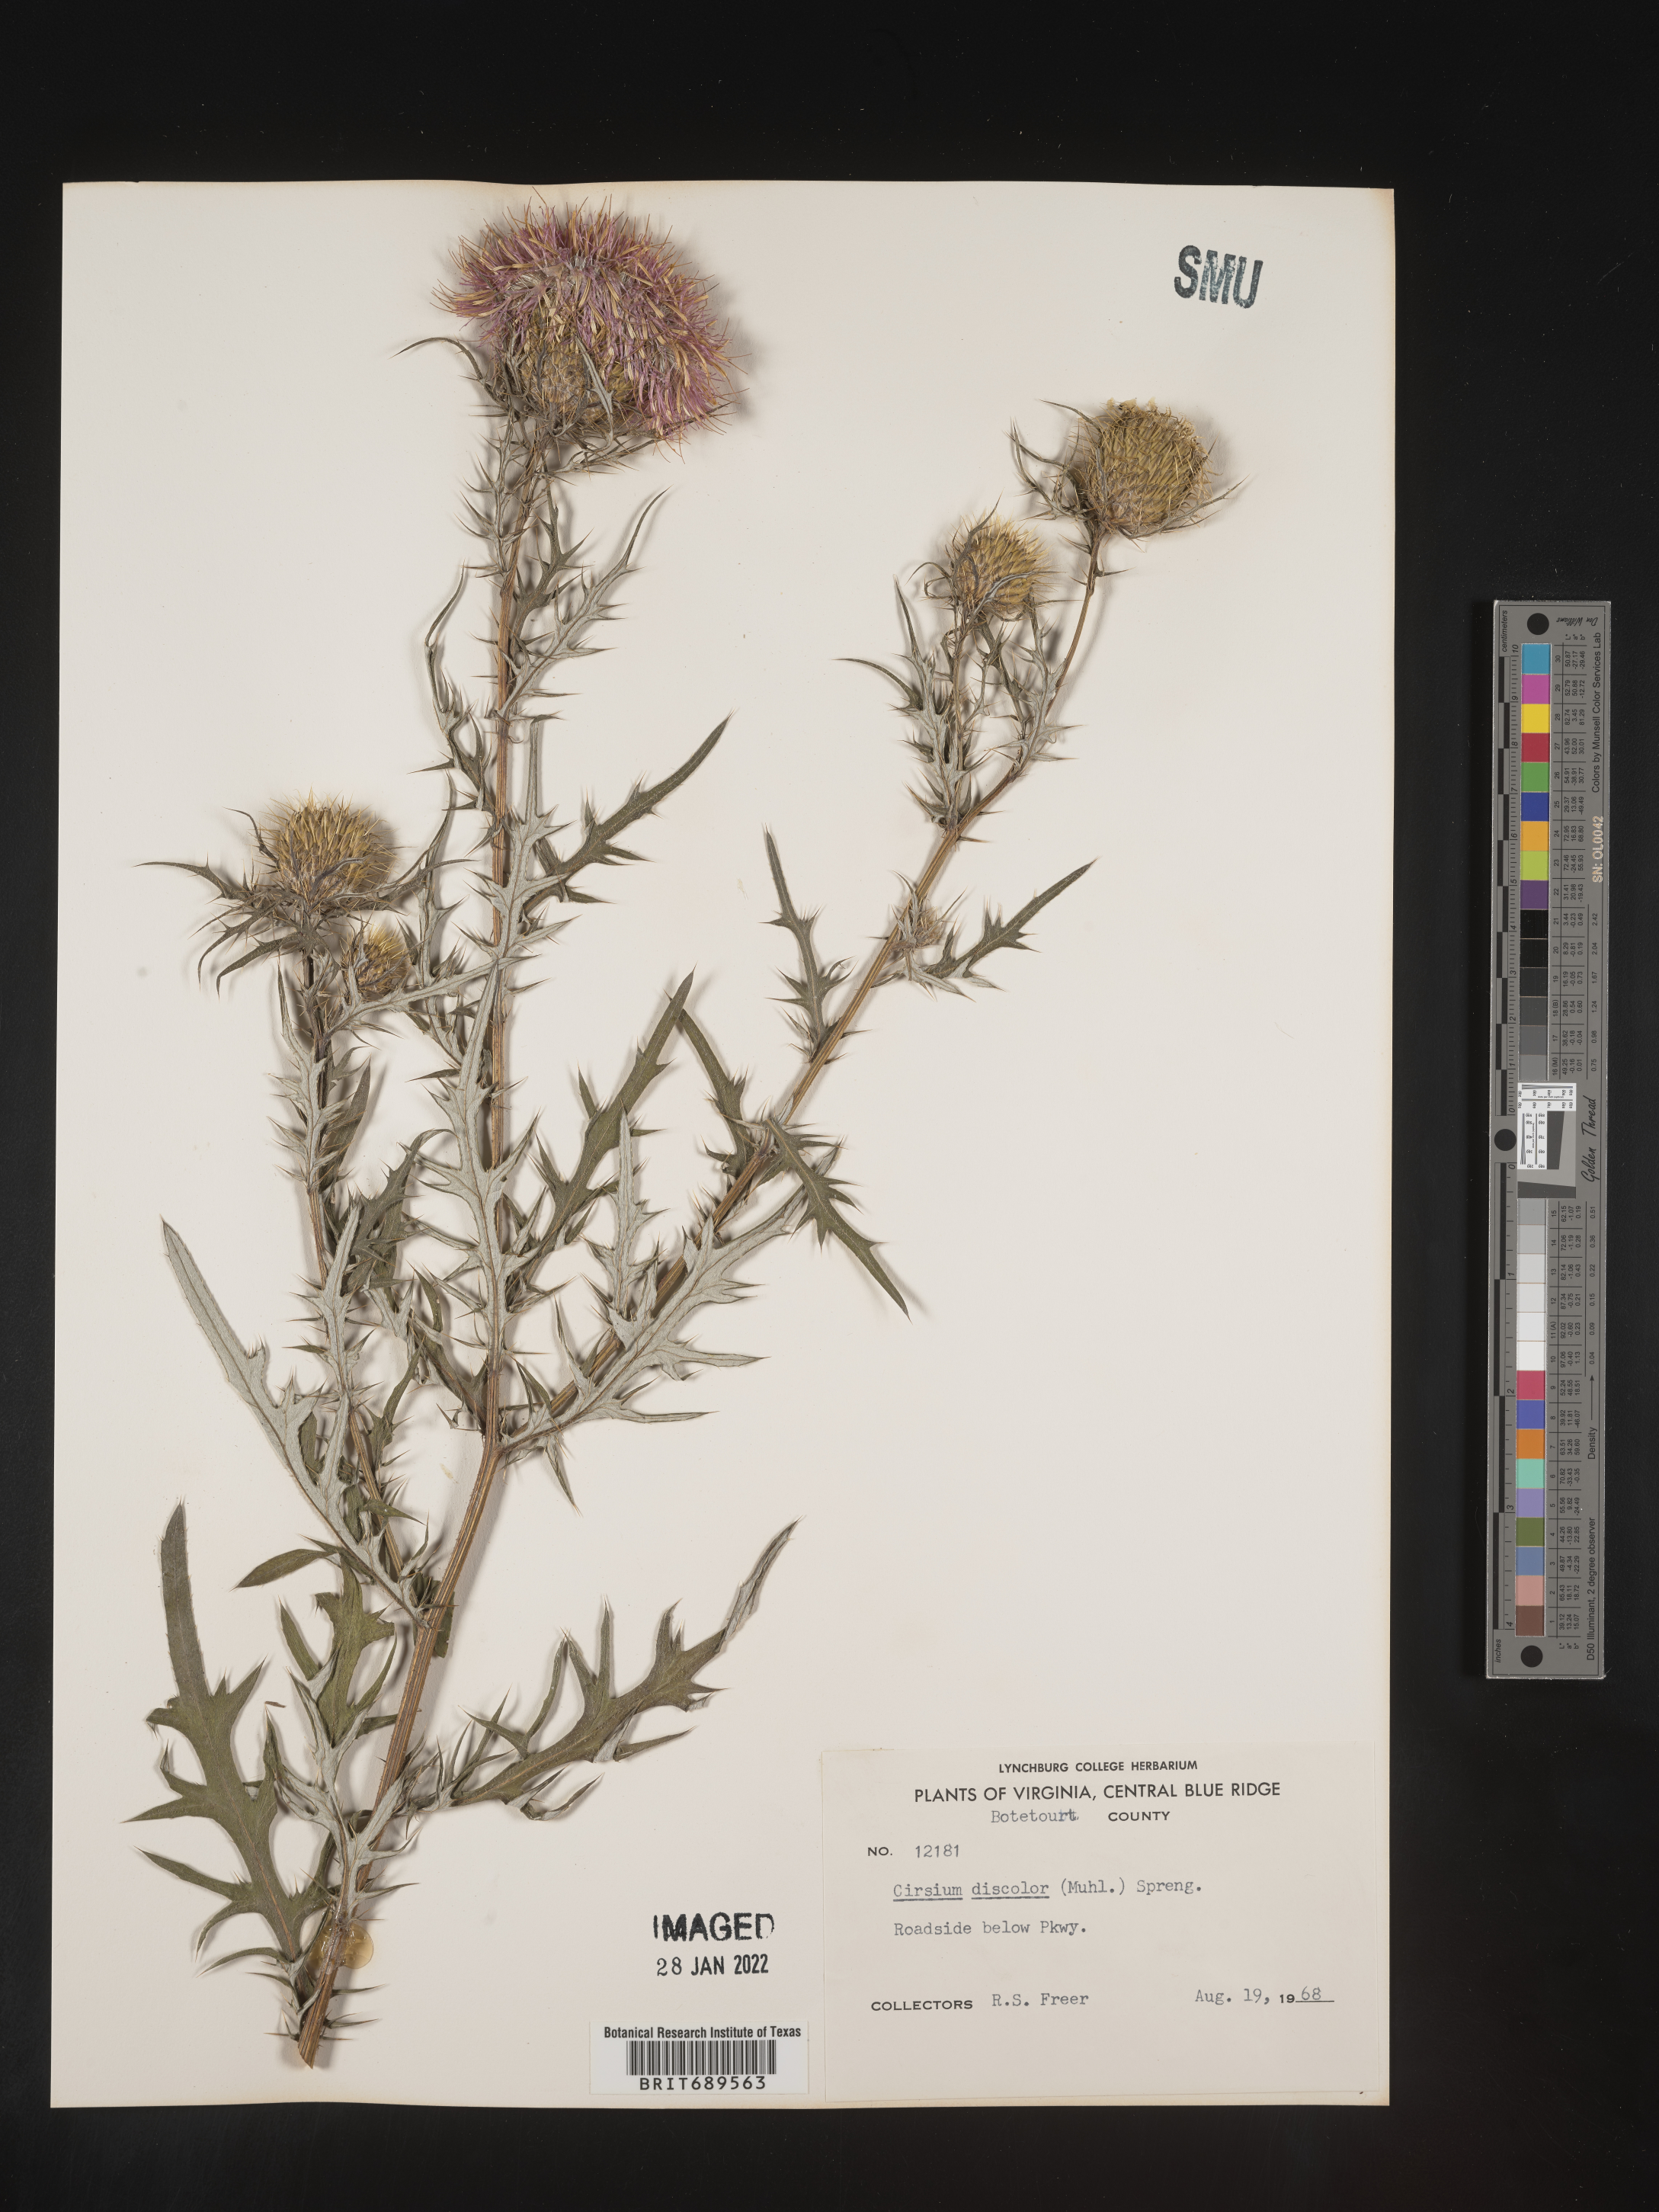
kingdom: Plantae
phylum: Tracheophyta
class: Magnoliopsida
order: Asterales
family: Asteraceae
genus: Cirsium
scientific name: Cirsium discolor
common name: Field thistle
